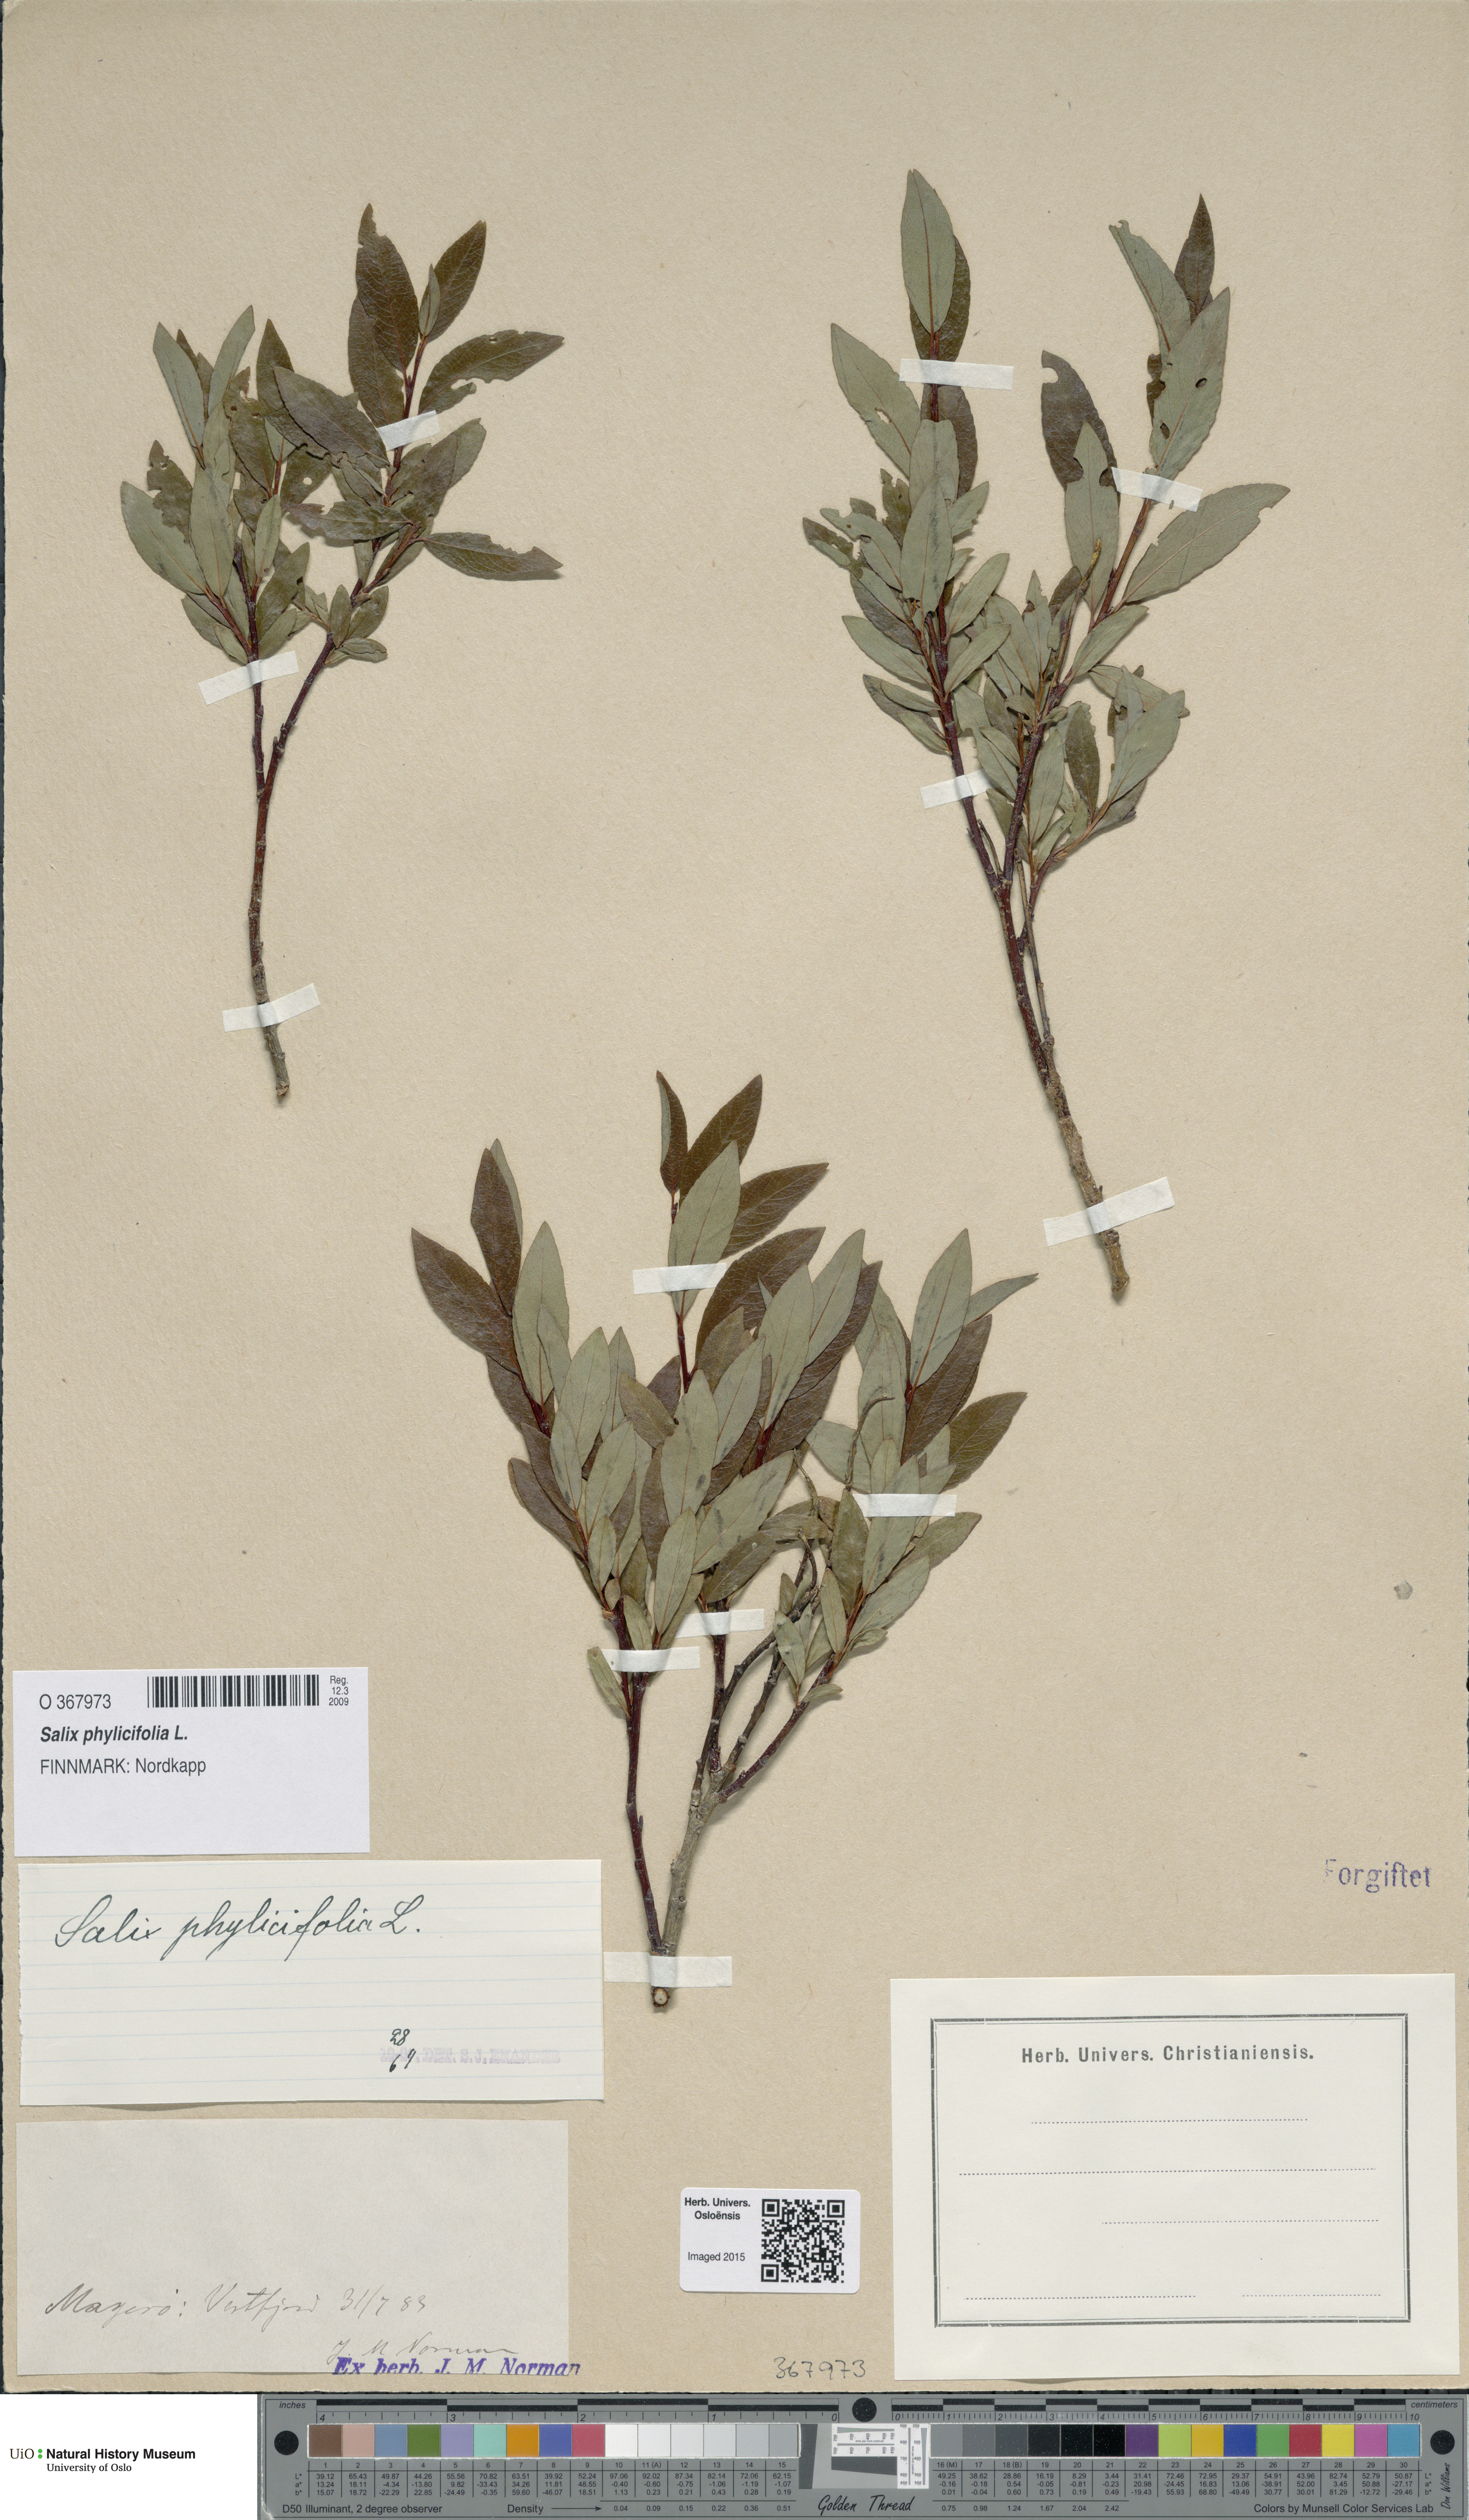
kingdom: Plantae
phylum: Tracheophyta
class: Magnoliopsida
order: Malpighiales
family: Salicaceae
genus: Salix
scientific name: Salix phylicifolia
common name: Tea-leaved willow
